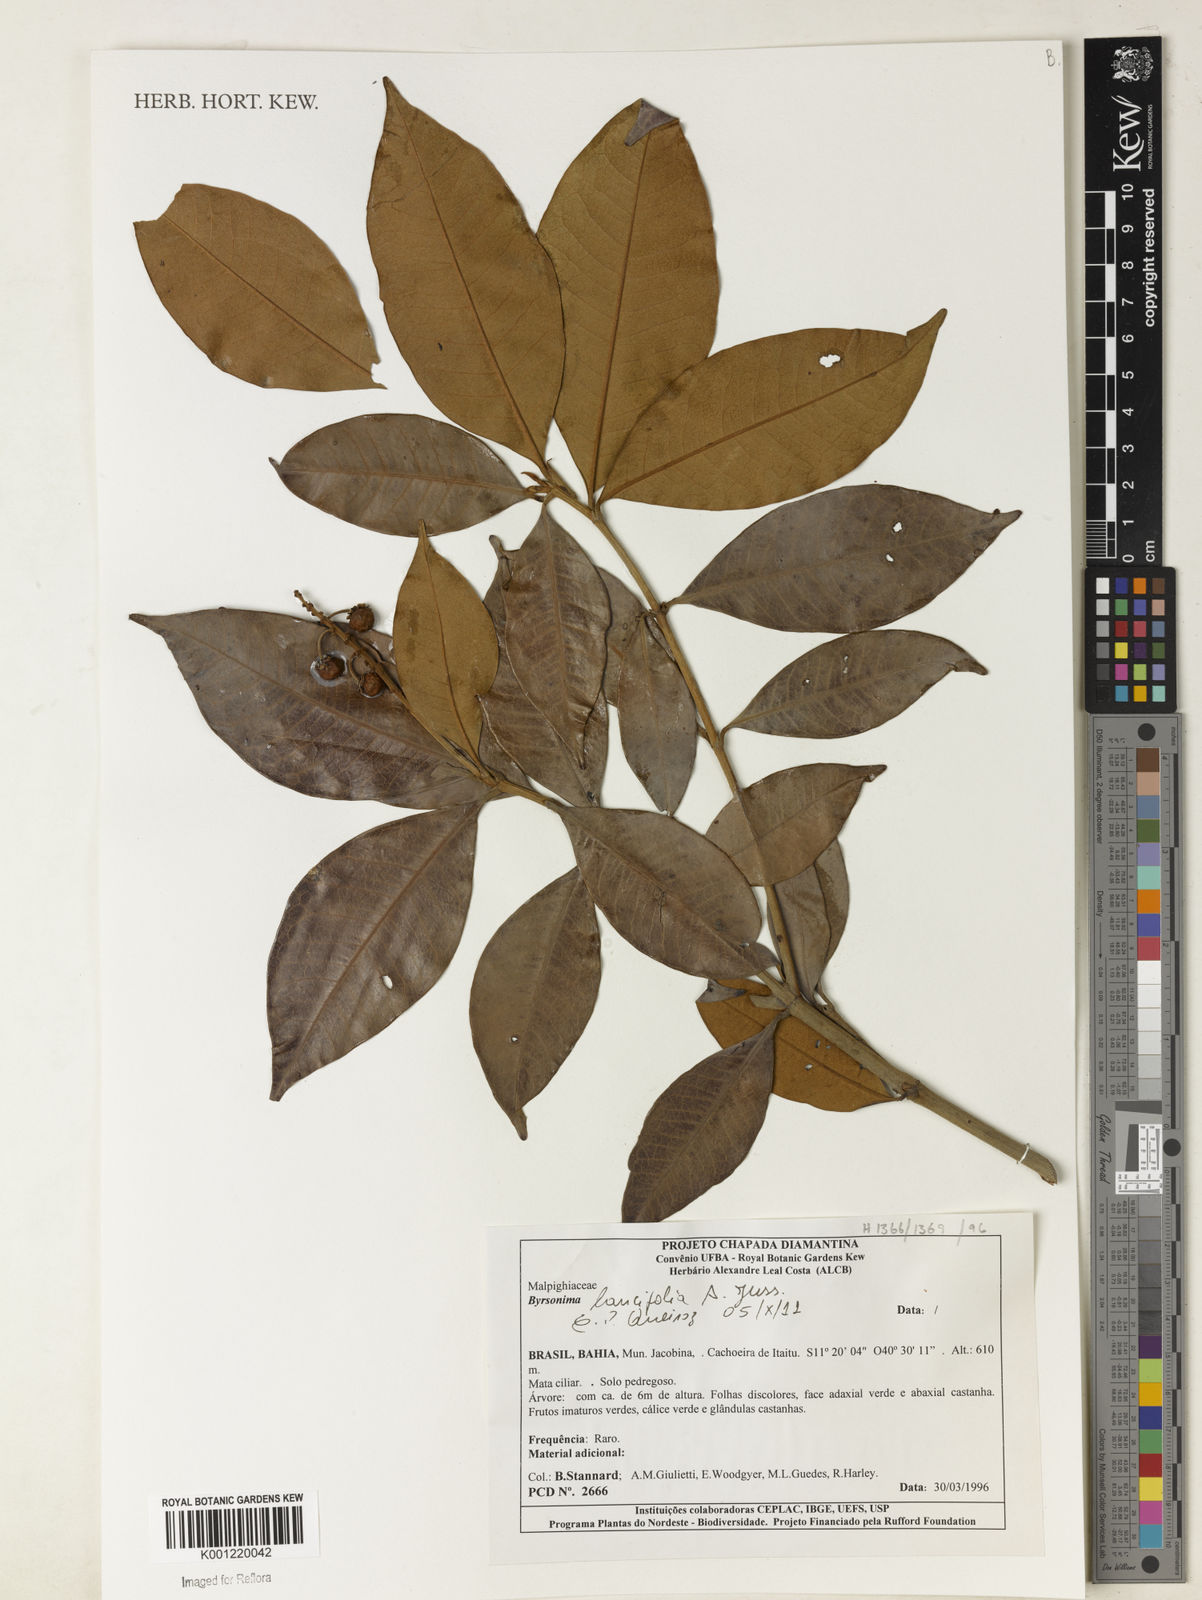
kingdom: Plantae
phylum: Tracheophyta
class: Magnoliopsida
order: Malpighiales
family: Malpighiaceae
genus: Byrsonima
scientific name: Byrsonima lancifolia
